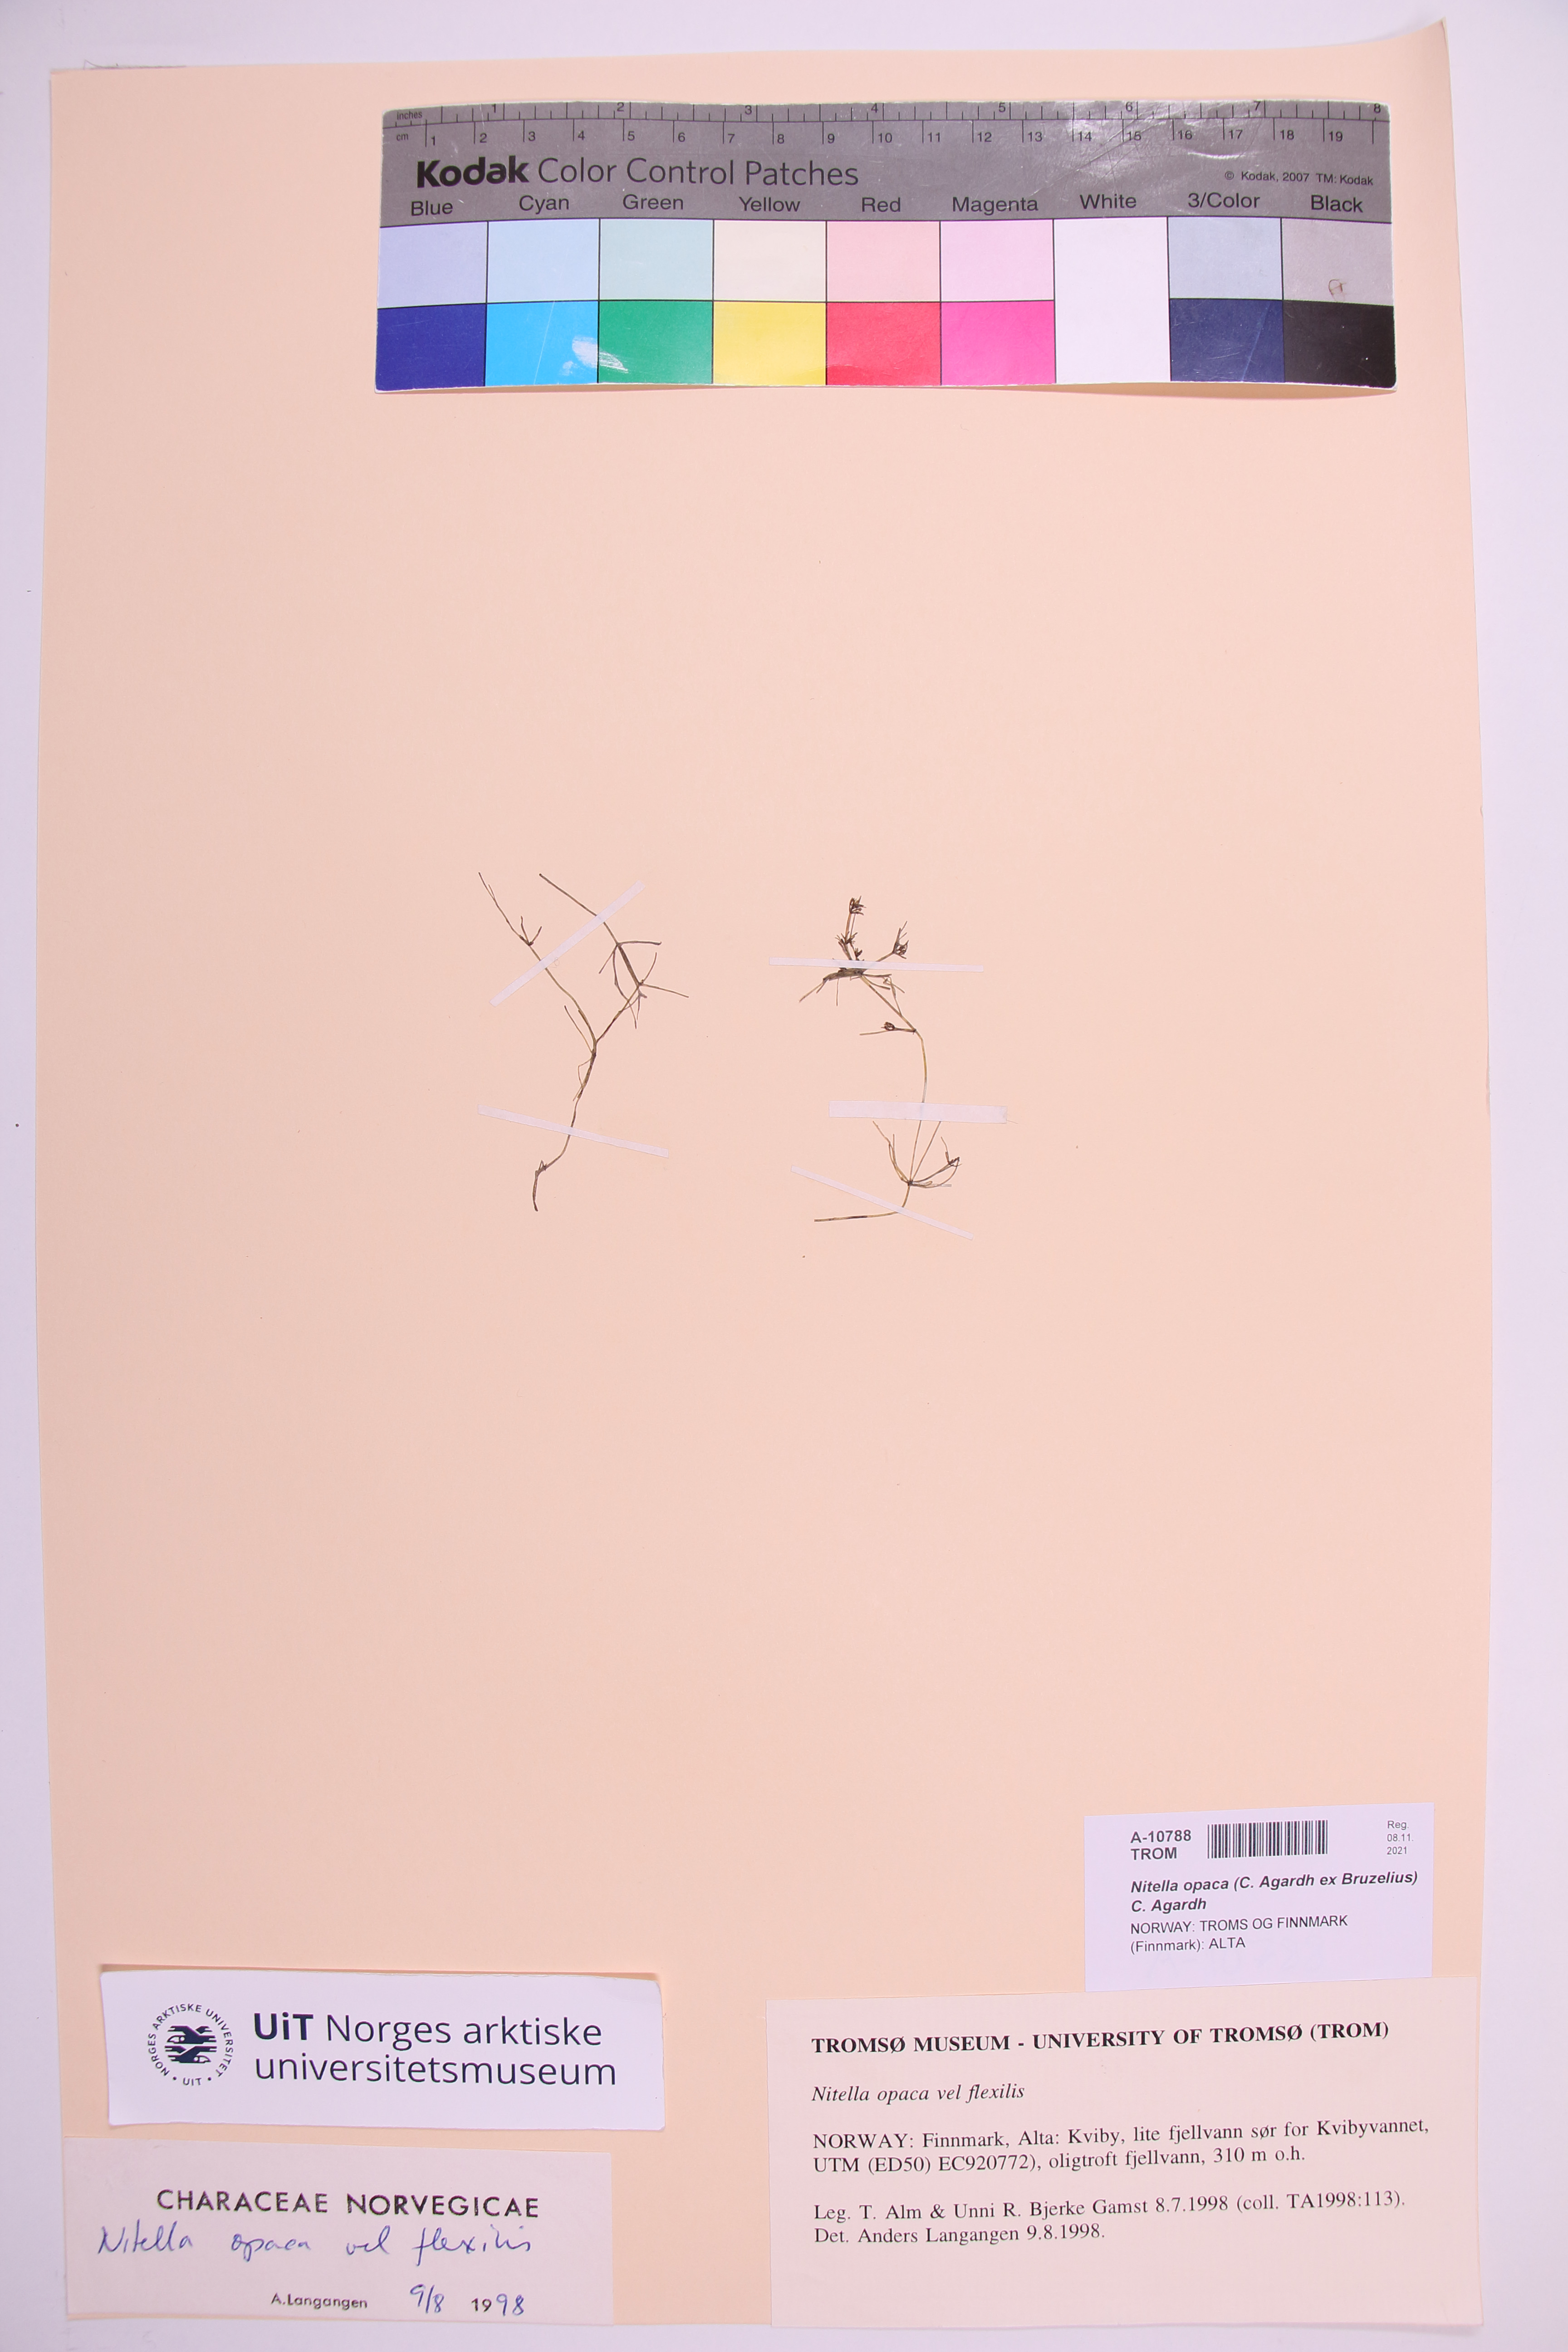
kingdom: Plantae
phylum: Charophyta
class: Charophyceae
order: Charales
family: Characeae
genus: Nitella
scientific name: Nitella opaca
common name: Dark stonewort
